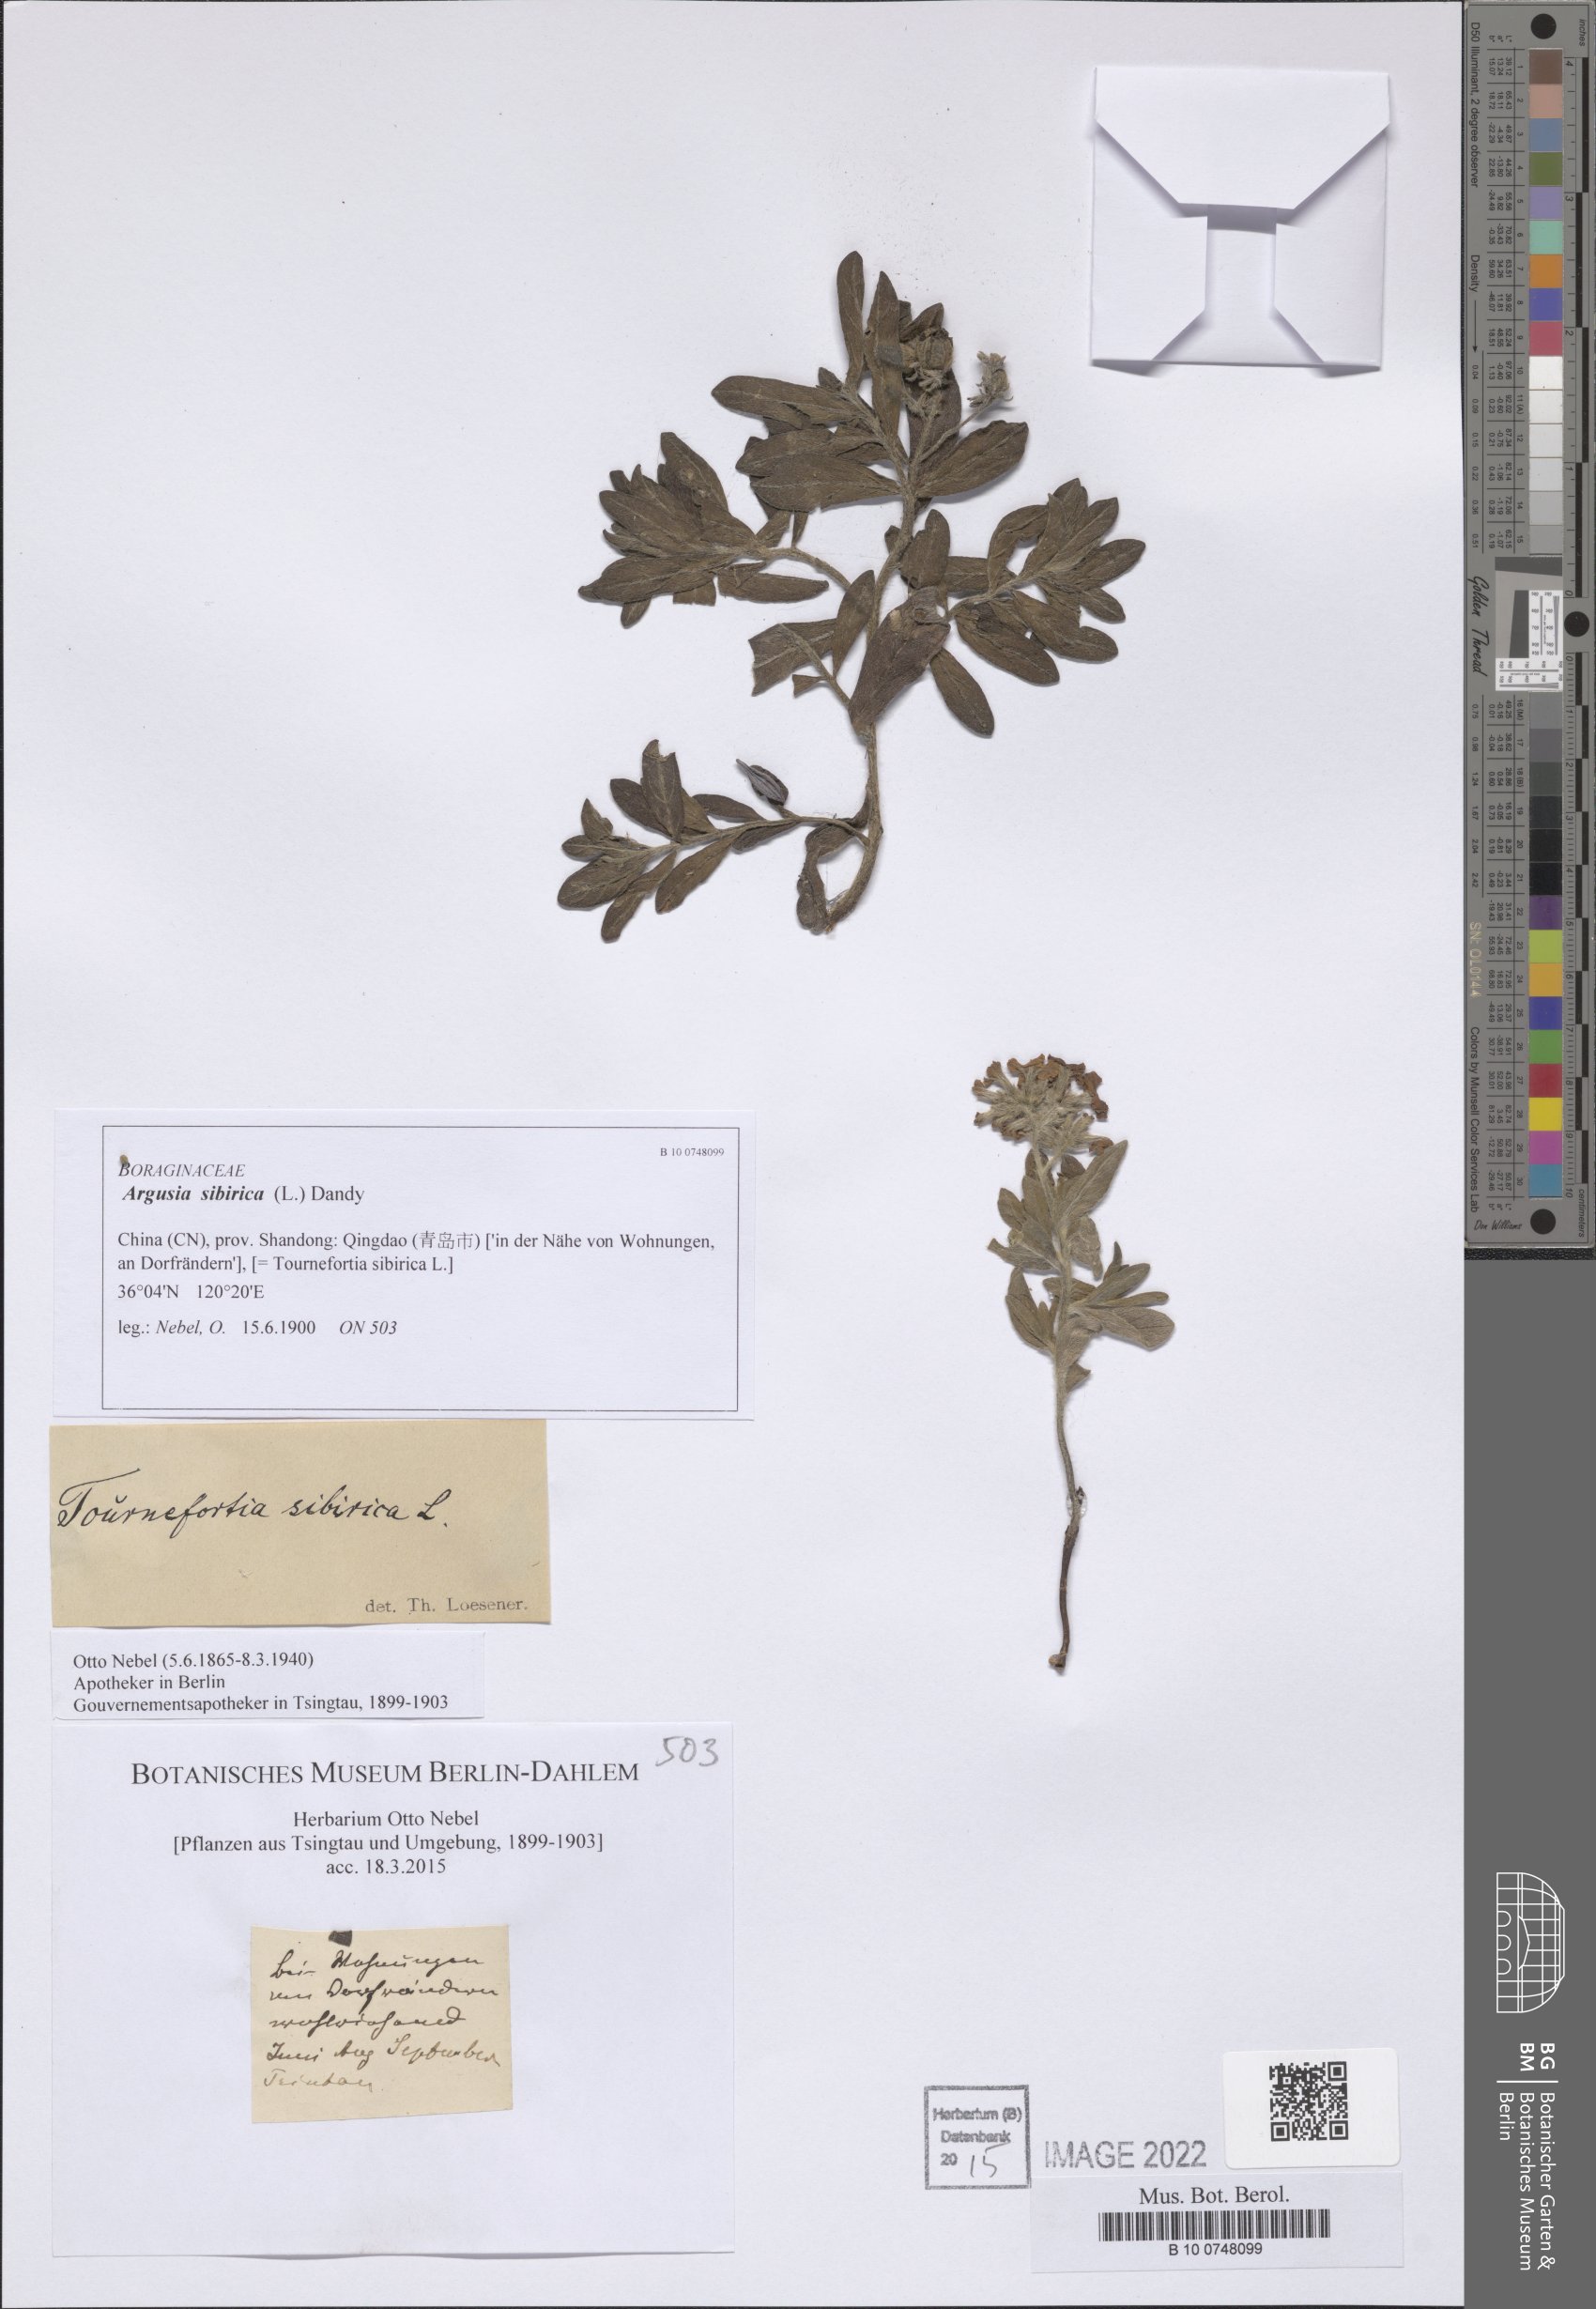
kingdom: Plantae
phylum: Tracheophyta
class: Magnoliopsida
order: Boraginales
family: Heliotropiaceae
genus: Tournefortia
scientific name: Tournefortia sibirica
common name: Siberian sea rosemary
